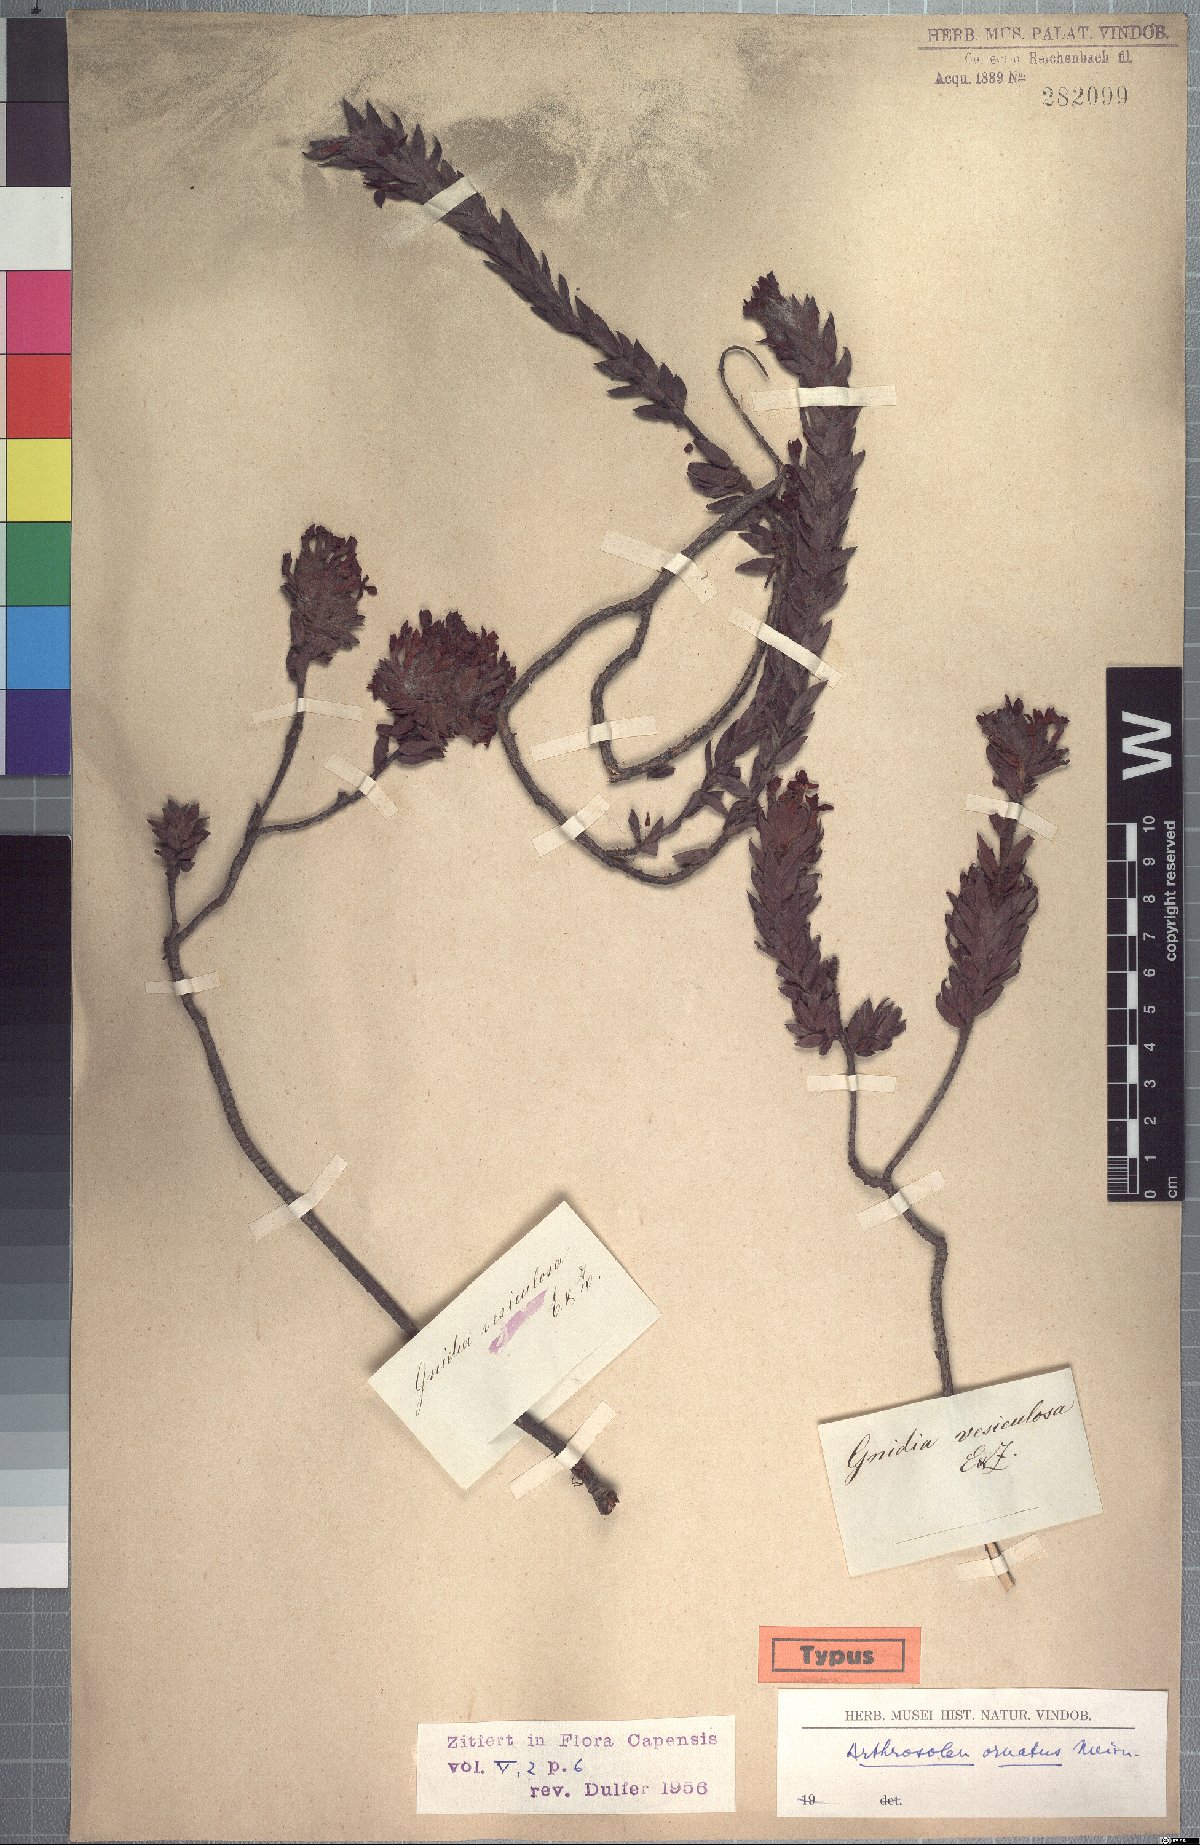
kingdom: Plantae
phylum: Tracheophyta
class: Magnoliopsida
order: Malvales
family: Thymelaeaceae
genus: Gnidia
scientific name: Gnidia ornata
